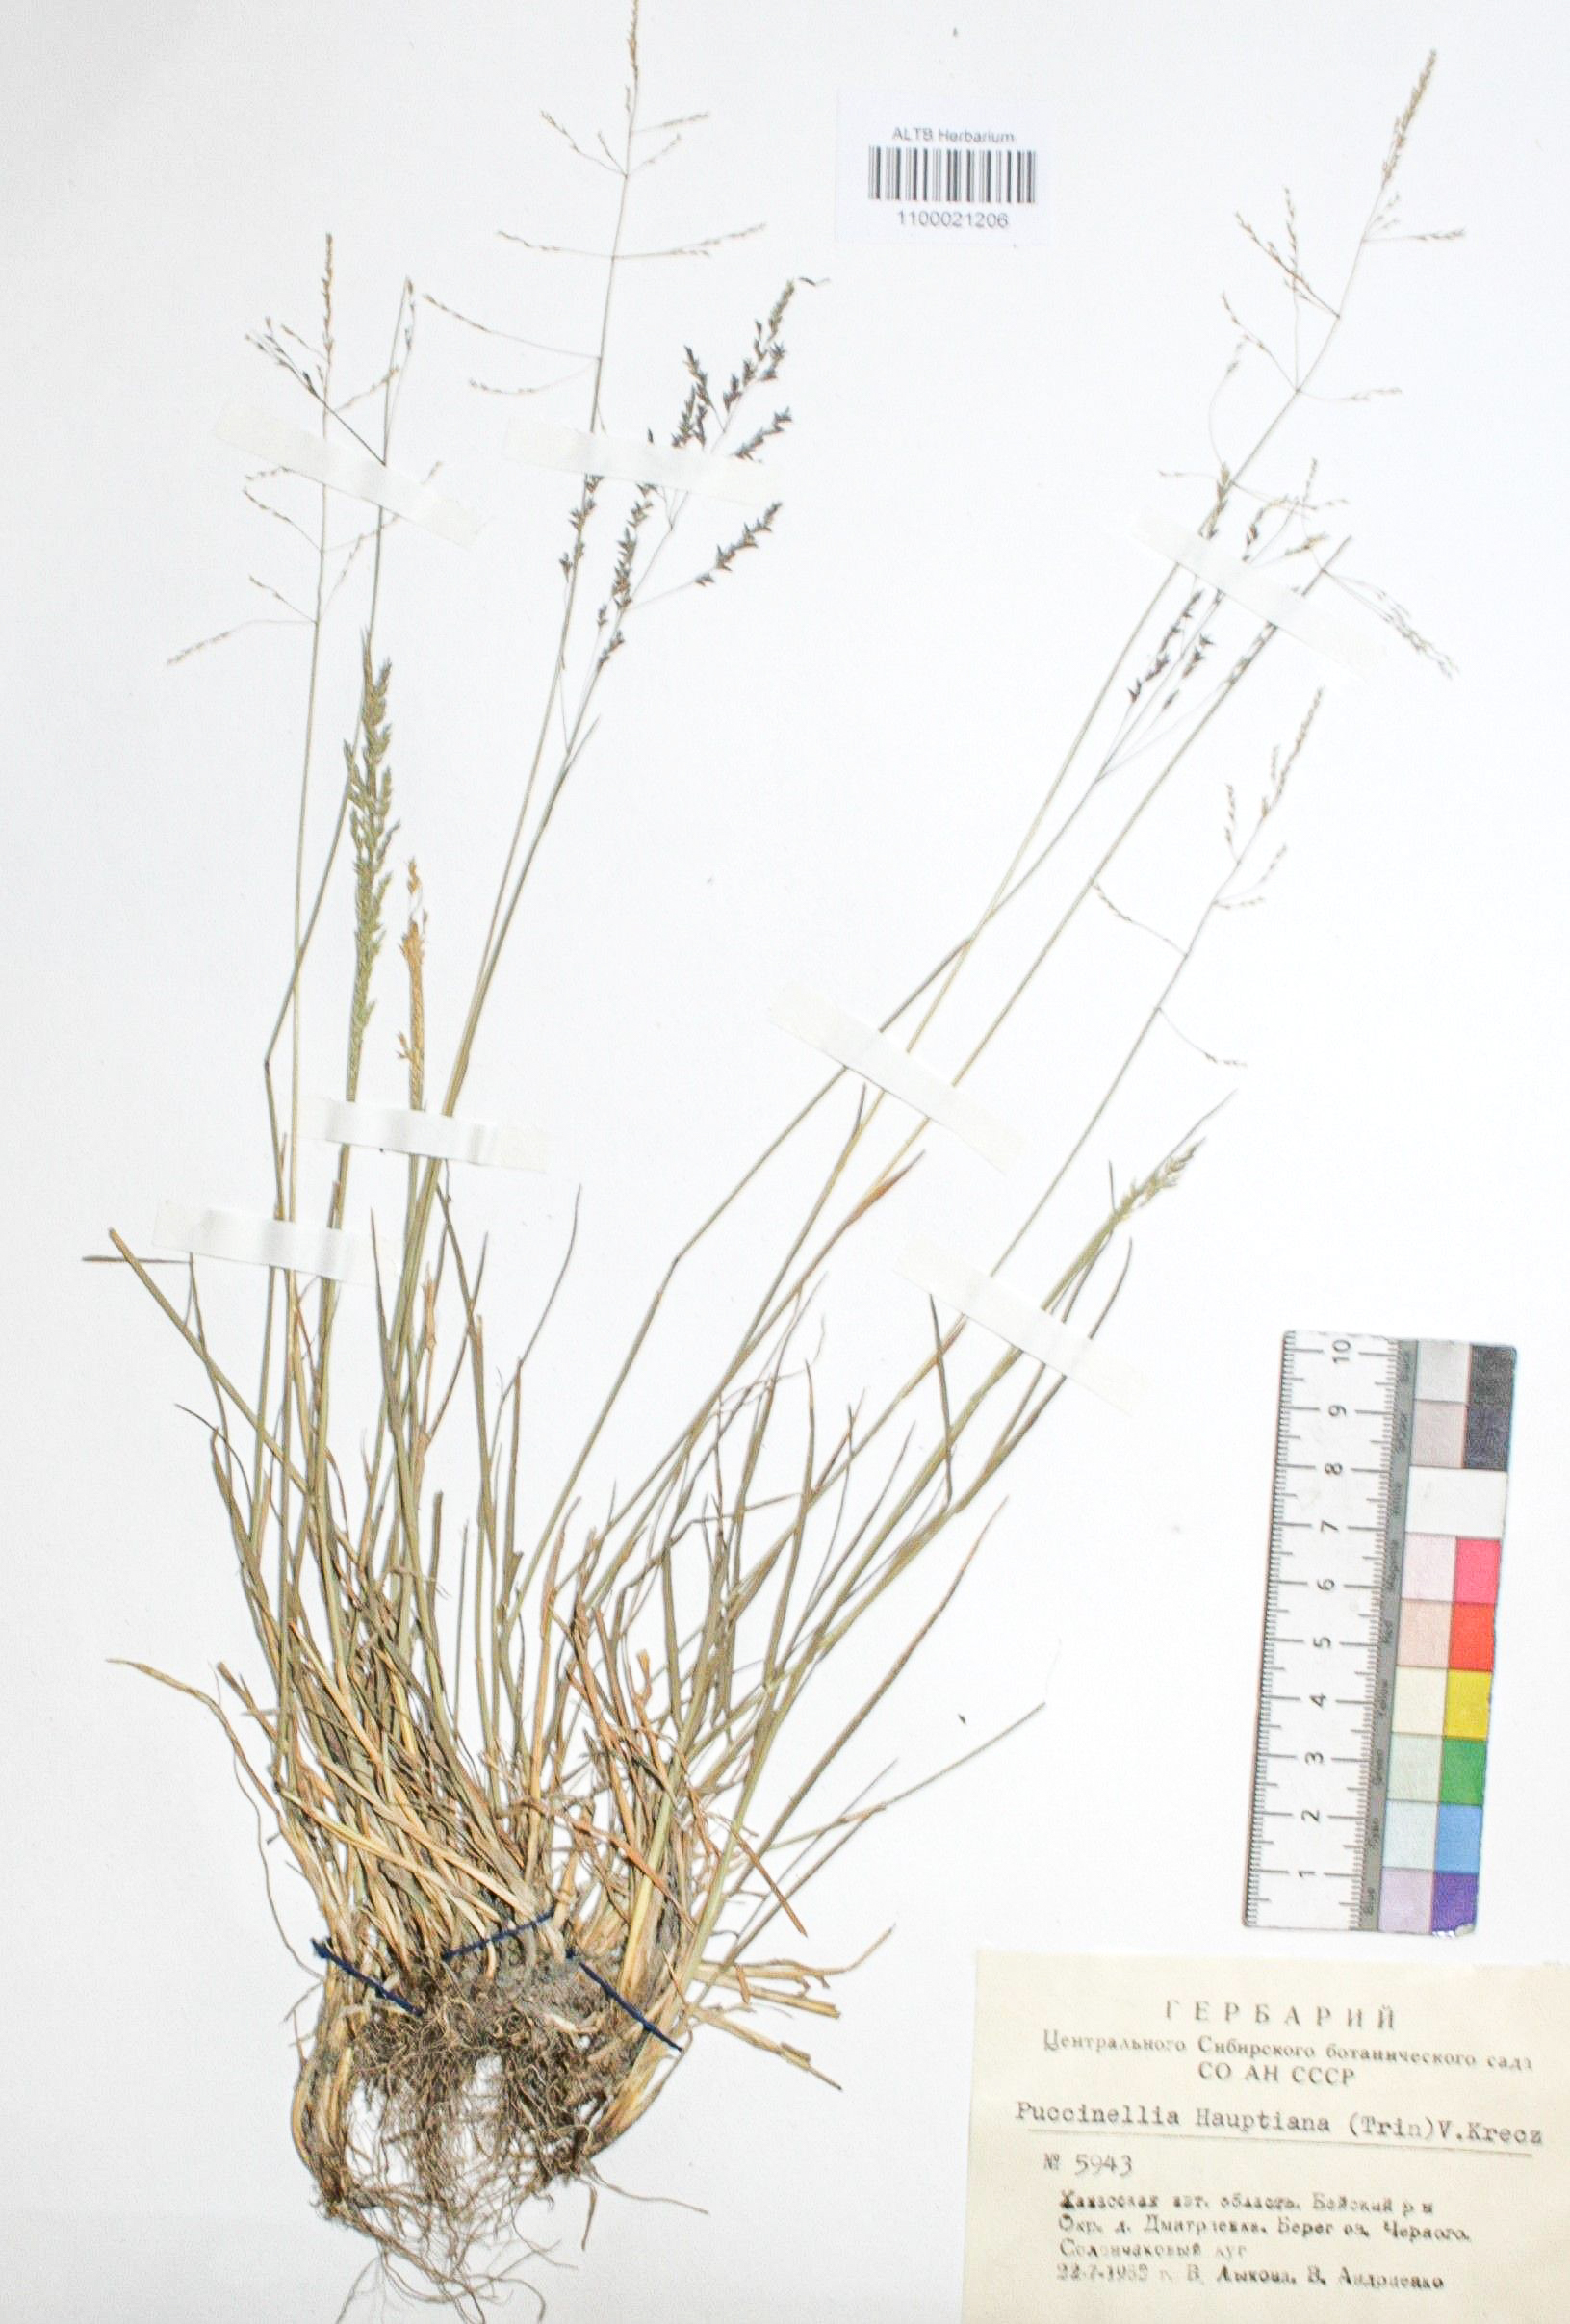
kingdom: Plantae
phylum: Tracheophyta
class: Liliopsida
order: Poales
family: Poaceae
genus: Puccinellia
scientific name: Puccinellia hauptiana
